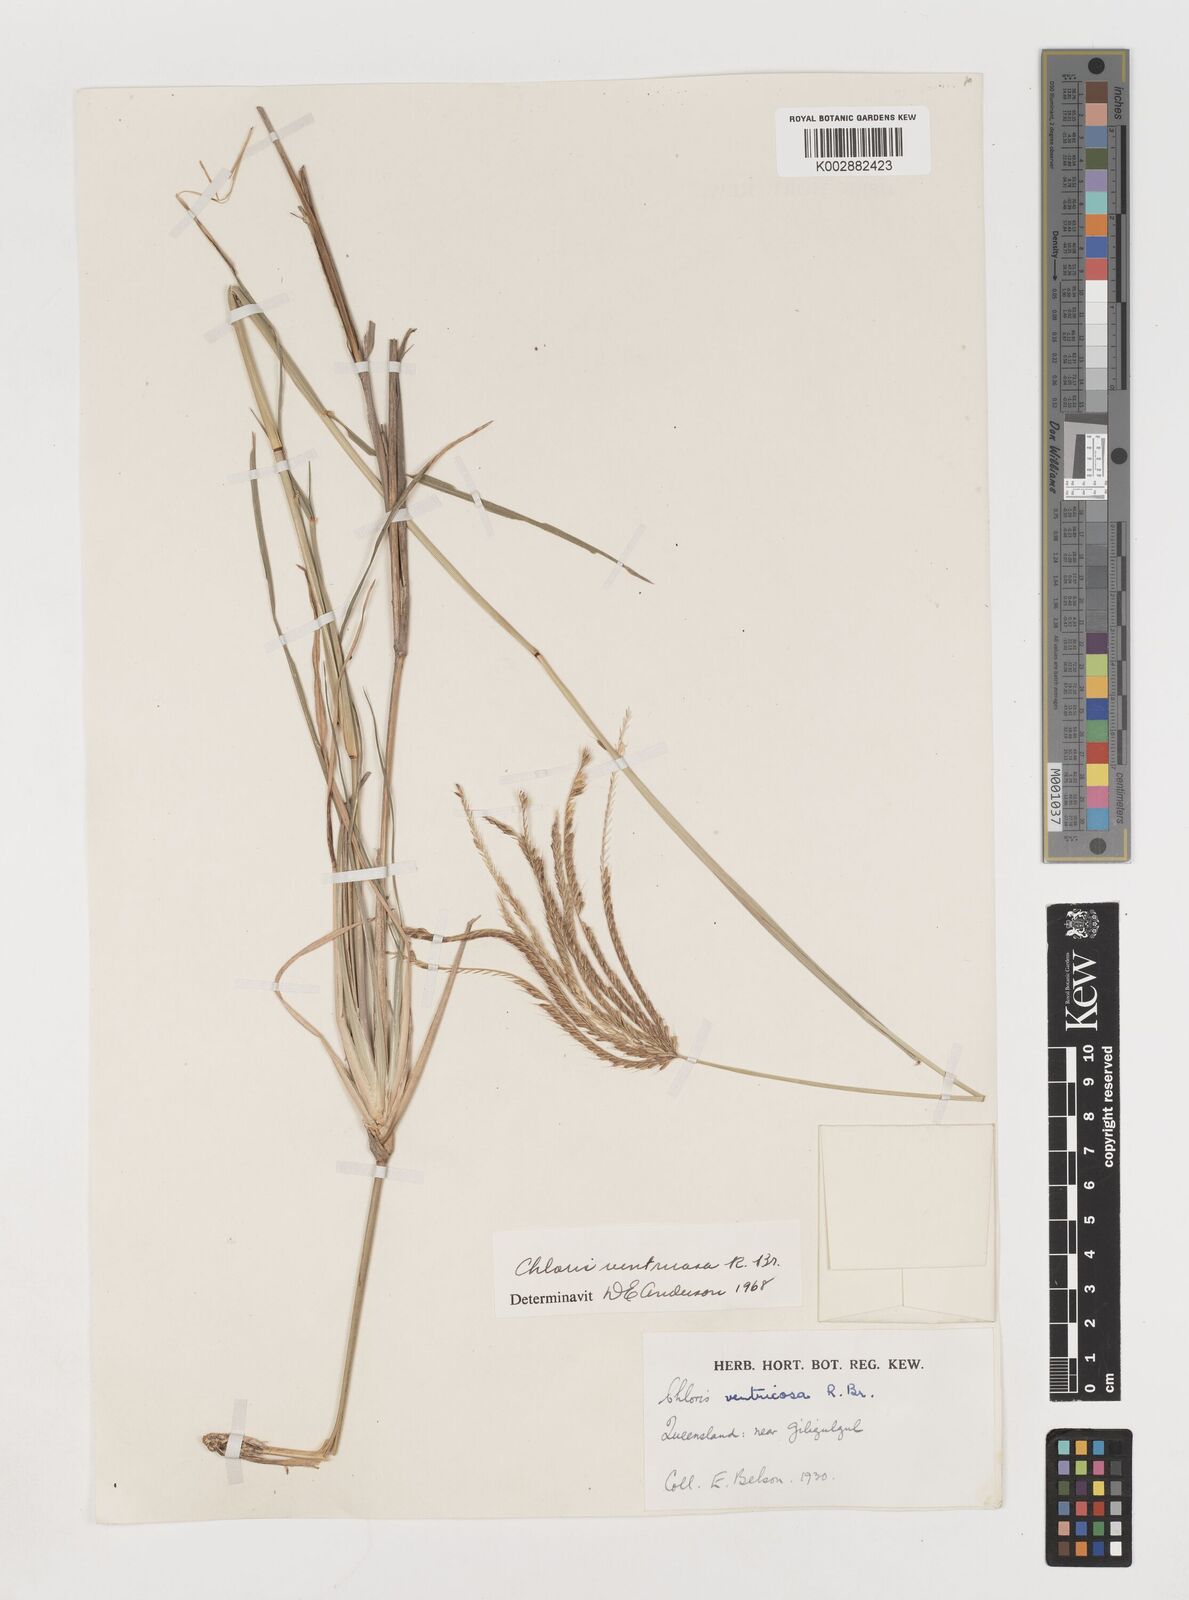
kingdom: Plantae
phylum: Tracheophyta
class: Liliopsida
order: Poales
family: Poaceae
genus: Chloris
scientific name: Chloris ventricosa
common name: Australian windmill grass
